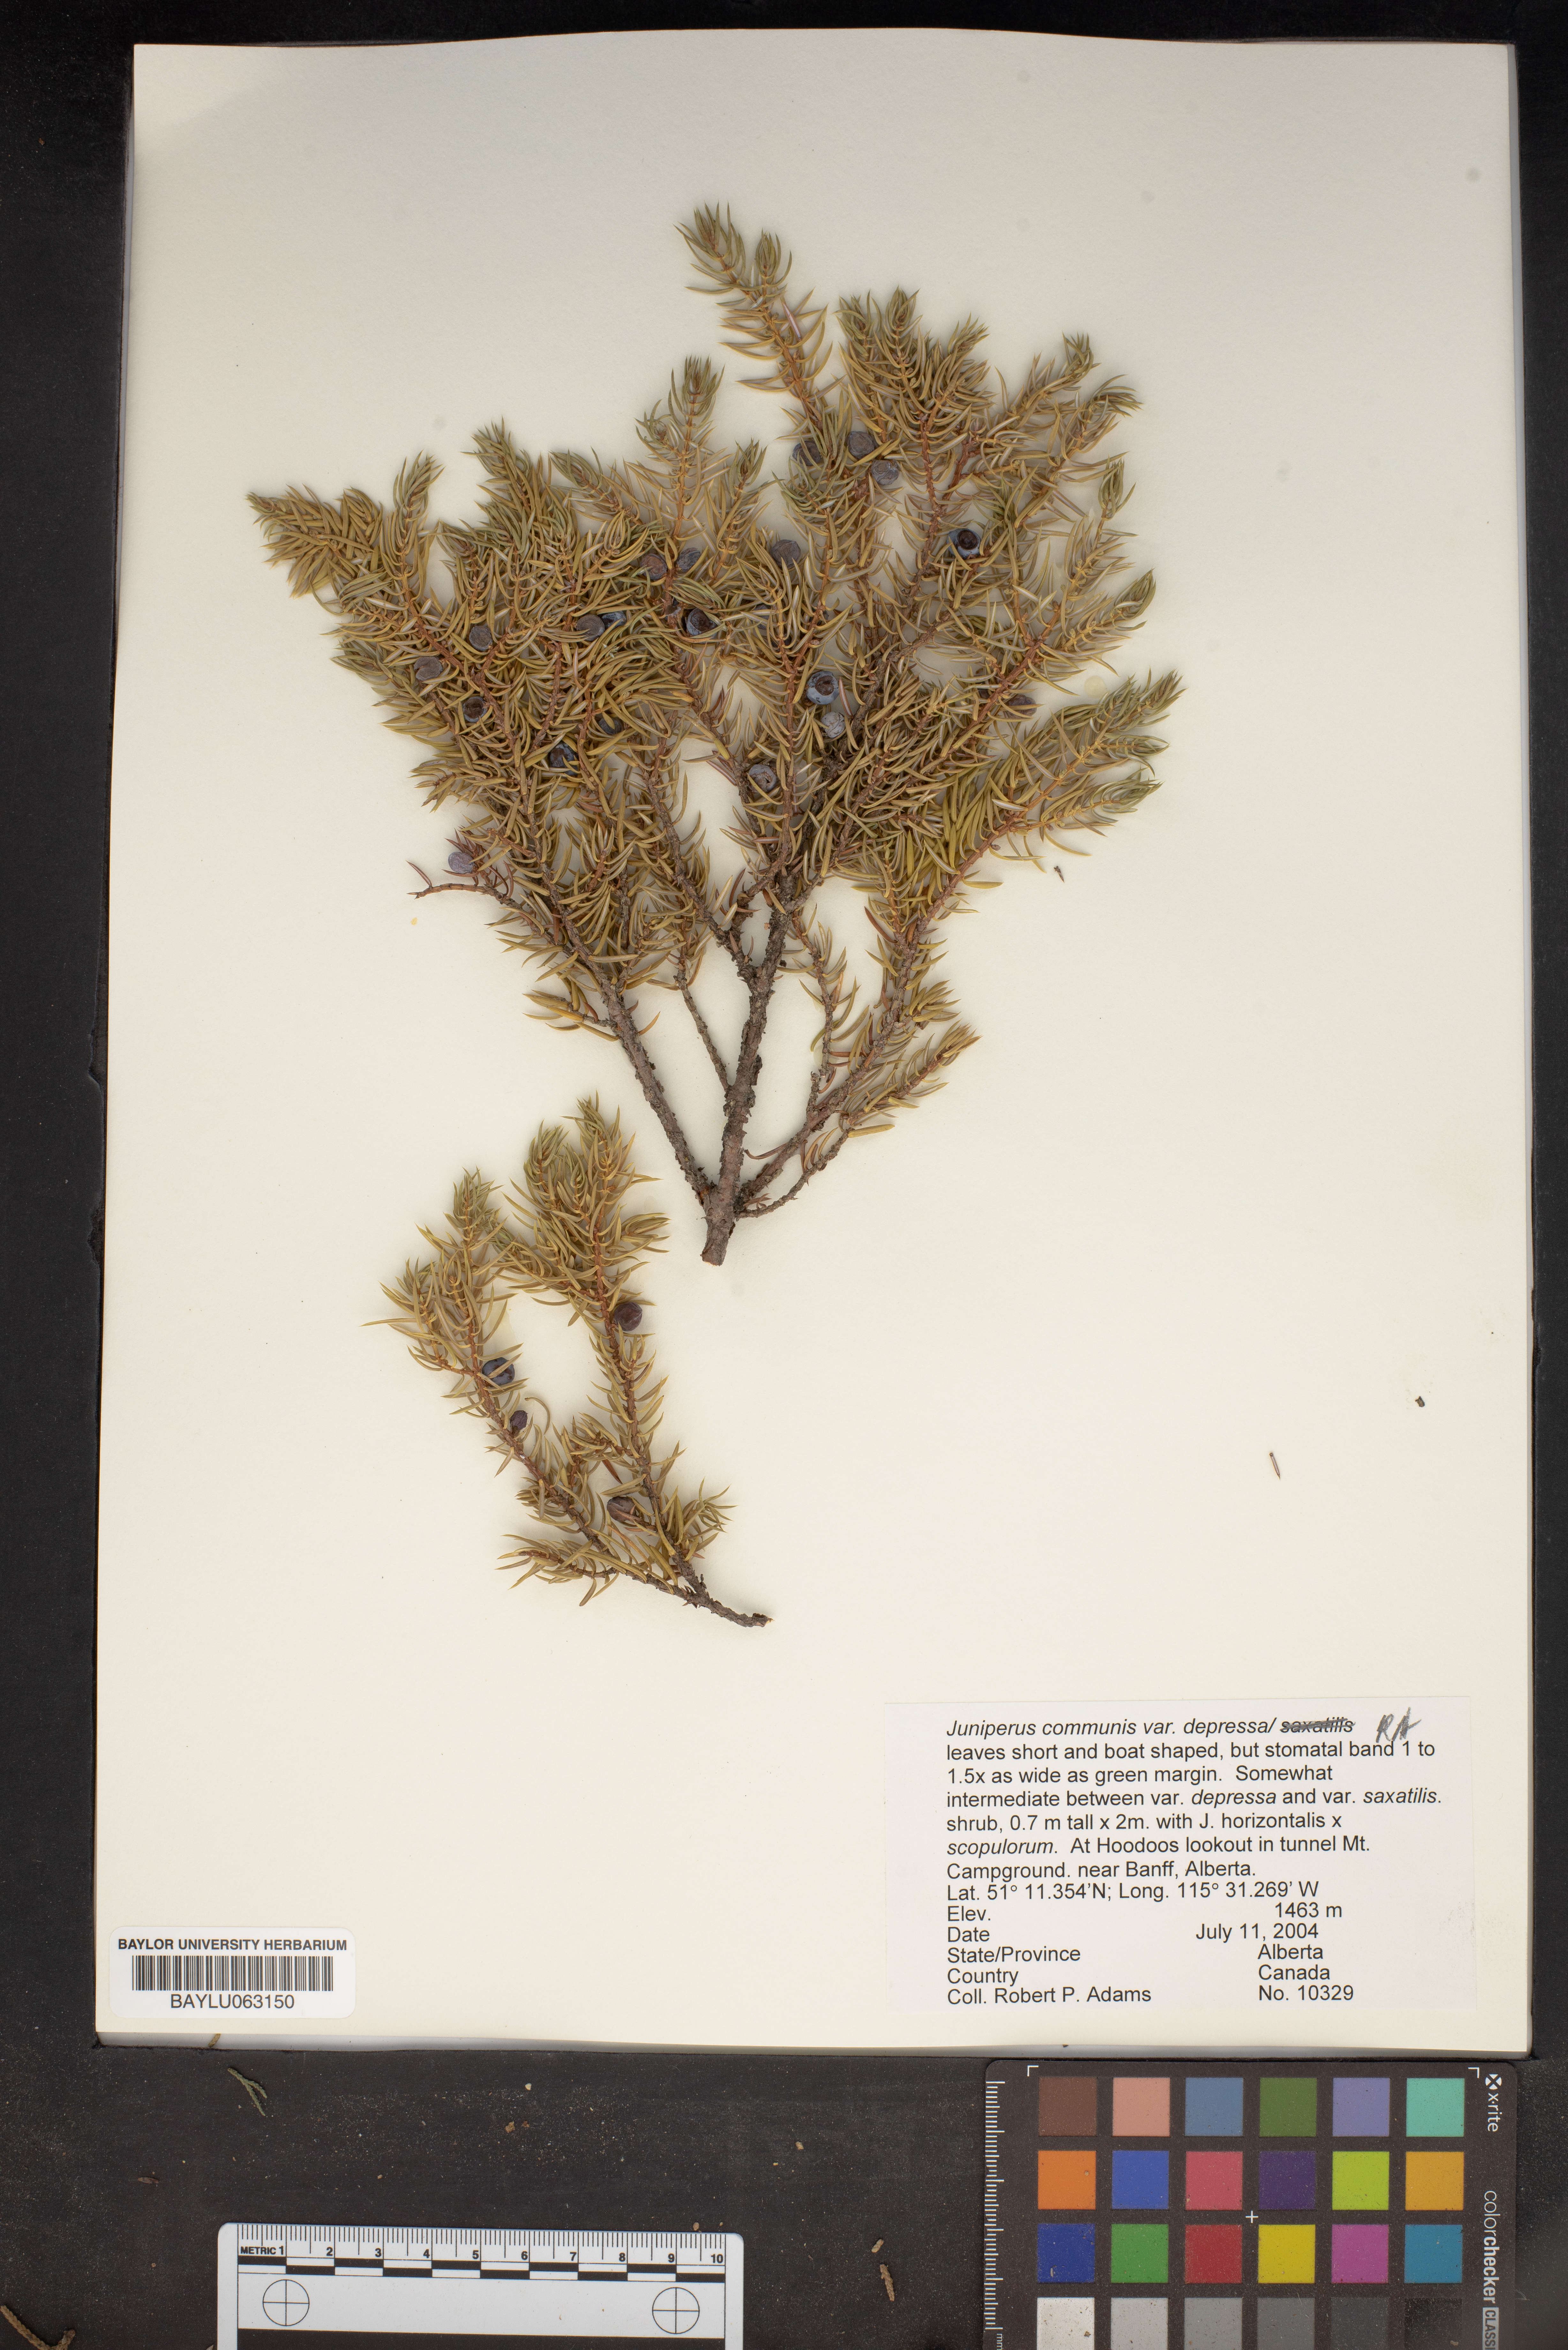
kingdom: Plantae
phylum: Tracheophyta
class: Pinopsida
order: Pinales
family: Cupressaceae
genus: Juniperus
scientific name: Juniperus communis
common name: Common juniper
